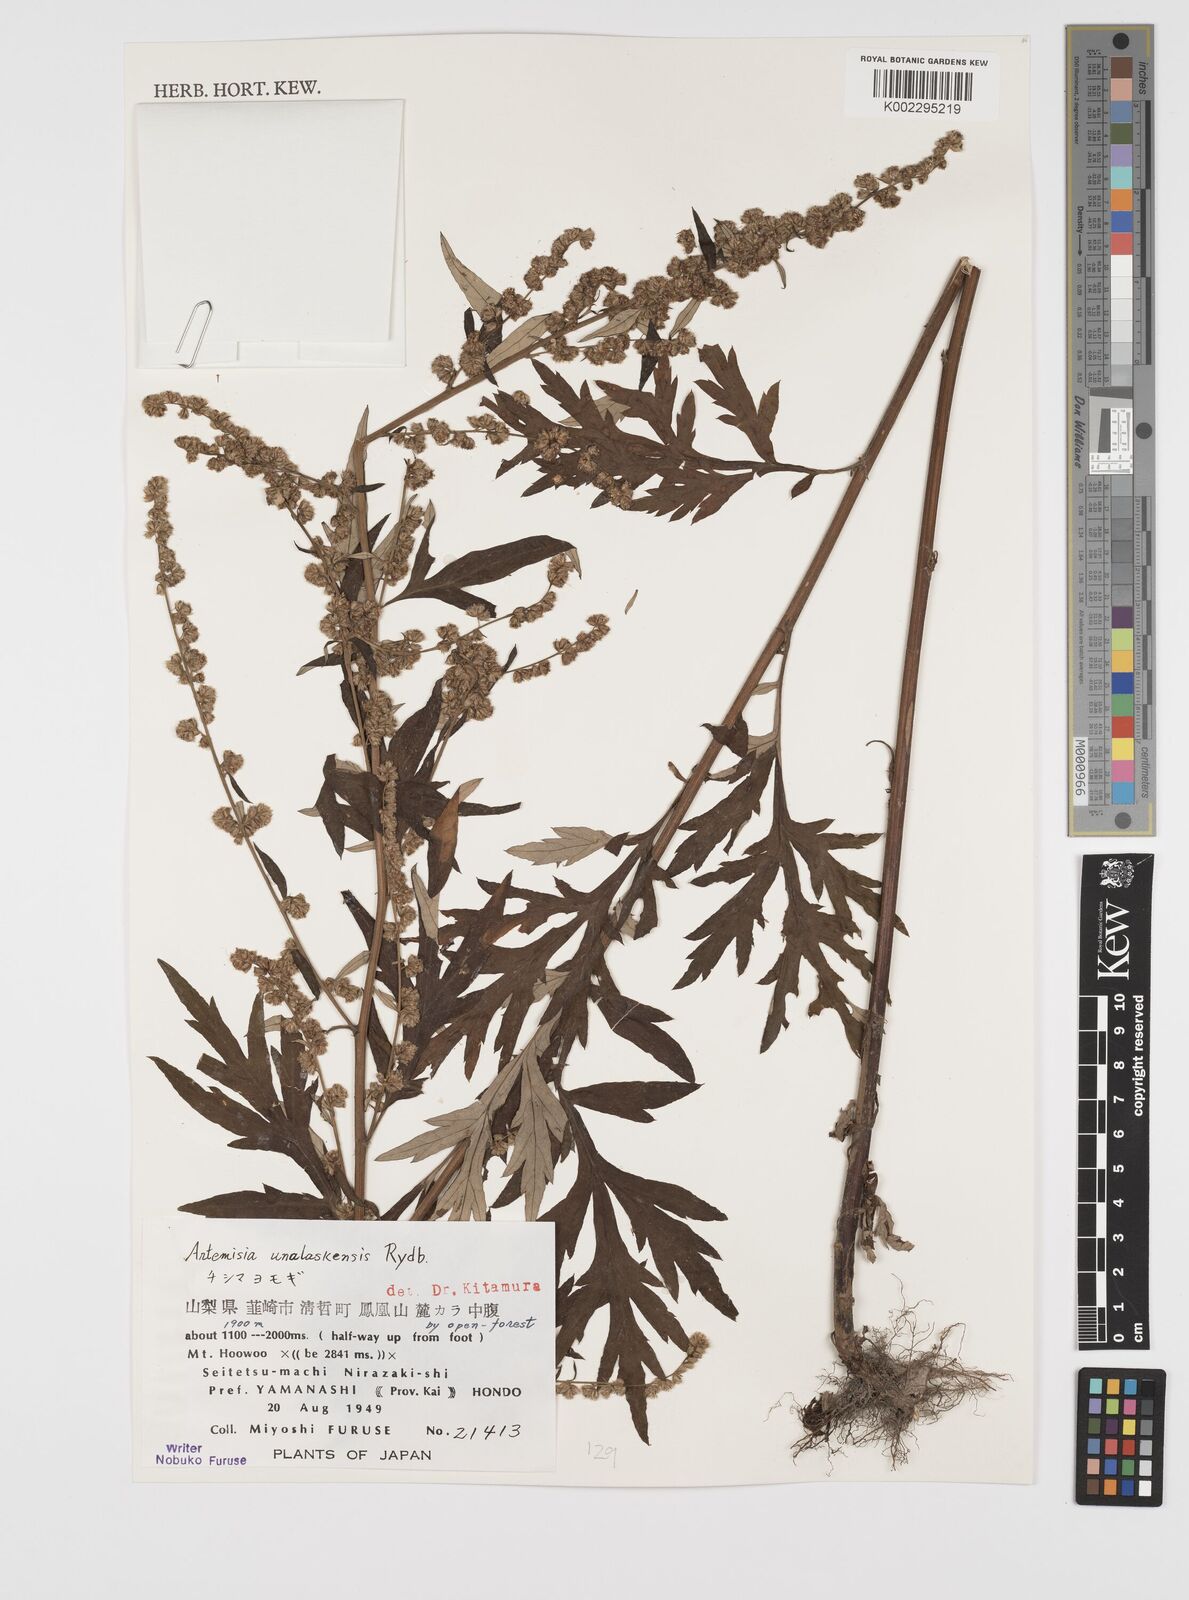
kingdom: Plantae
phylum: Tracheophyta
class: Magnoliopsida
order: Asterales
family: Asteraceae
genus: Artemisia
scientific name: Artemisia tilesii
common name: Aleutian mugwort
